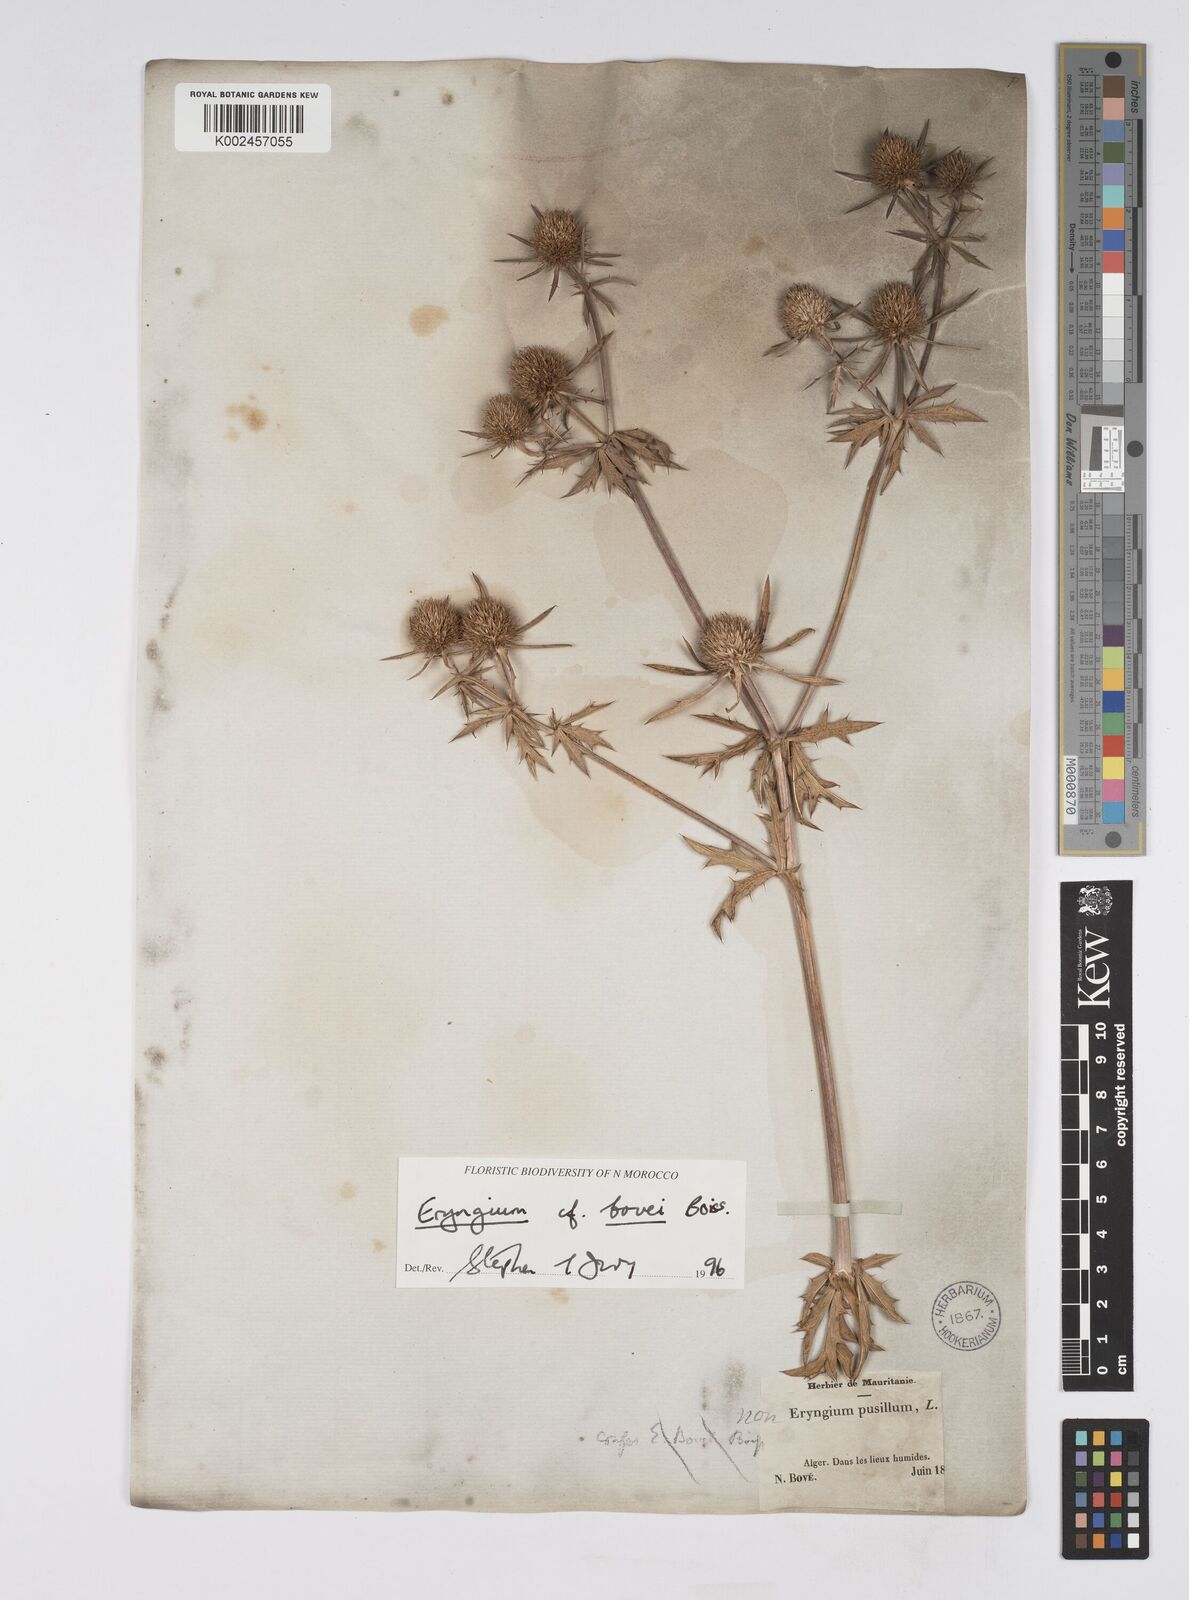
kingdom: Plantae
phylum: Tracheophyta
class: Magnoliopsida
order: Apiales
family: Apiaceae
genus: Eryngium
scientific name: Eryngium tricuspidatum
